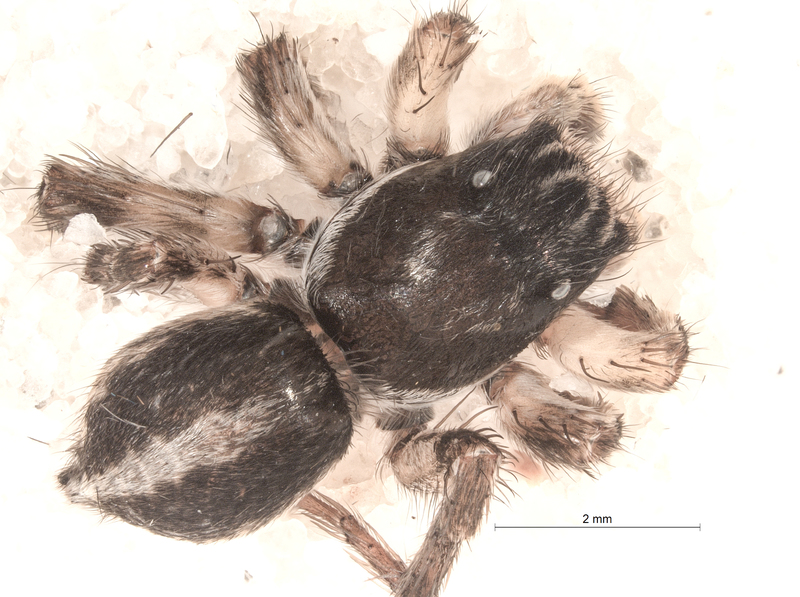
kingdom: Animalia
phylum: Arthropoda
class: Arachnida
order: Araneae
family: Salticidae
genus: Aelurillus
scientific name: Aelurillus v-insignitus
